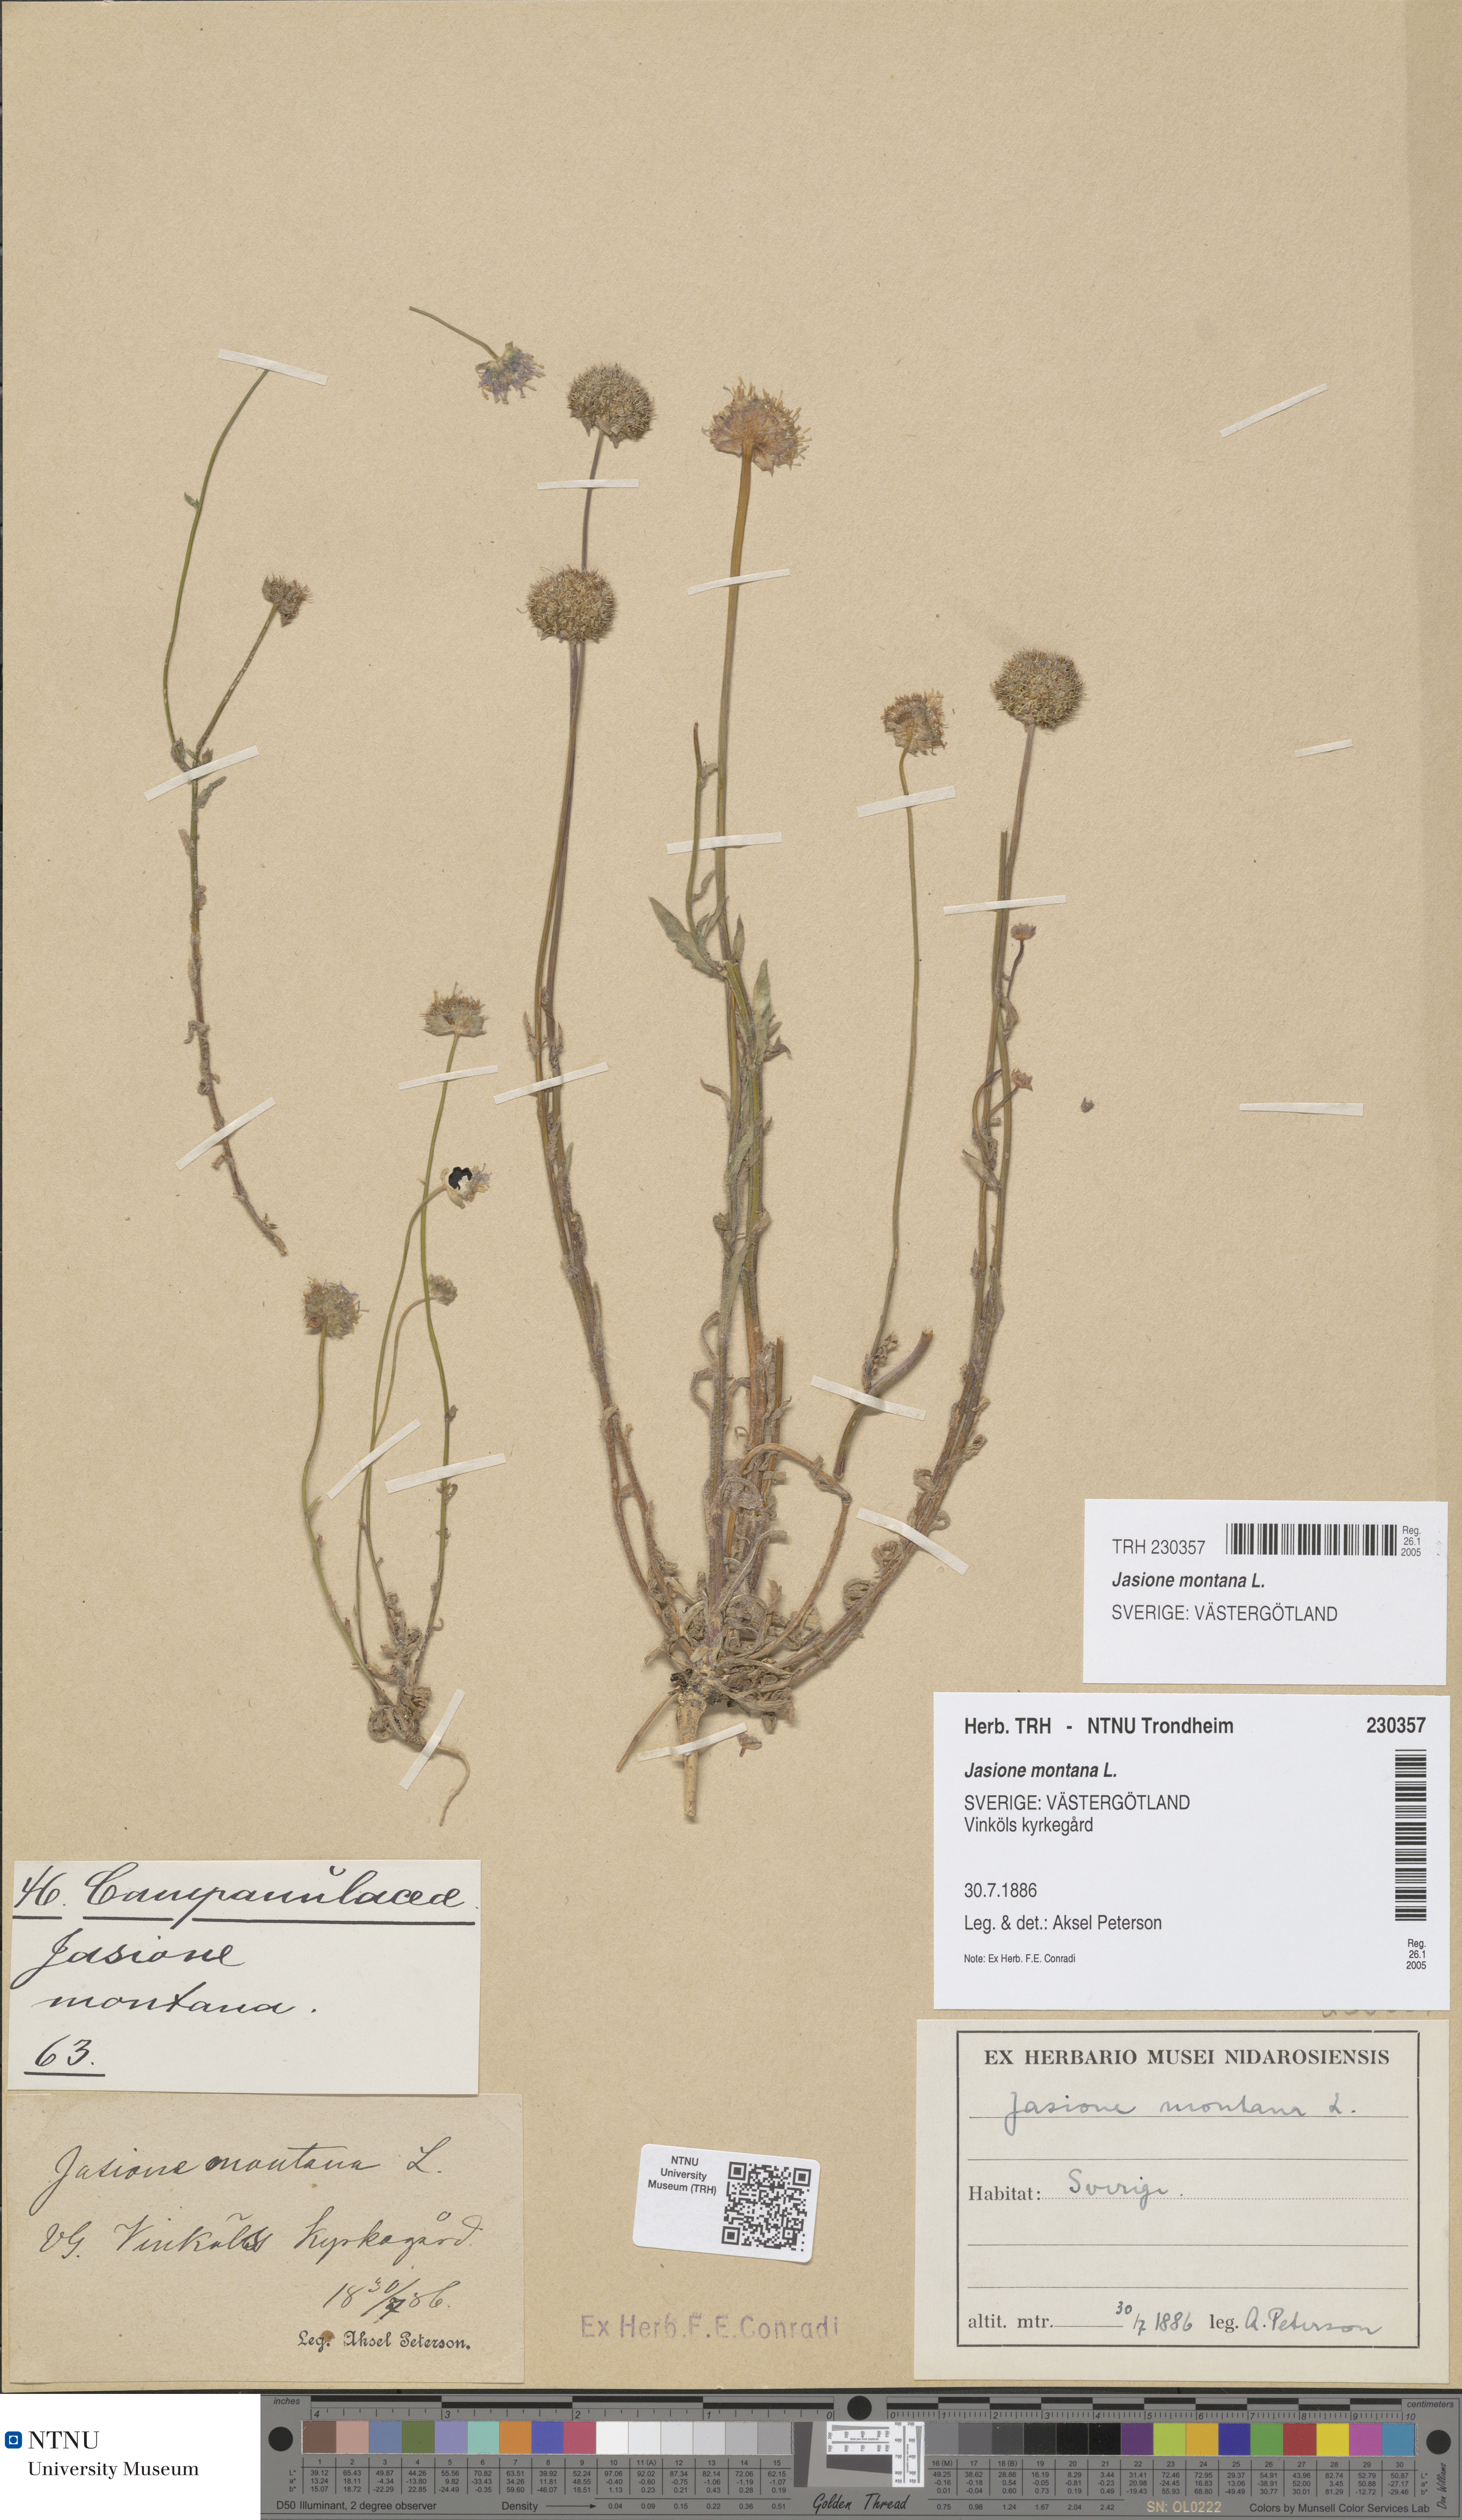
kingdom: Plantae
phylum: Tracheophyta
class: Magnoliopsida
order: Asterales
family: Campanulaceae
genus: Jasione
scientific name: Jasione montana
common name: Sheep's-bit
